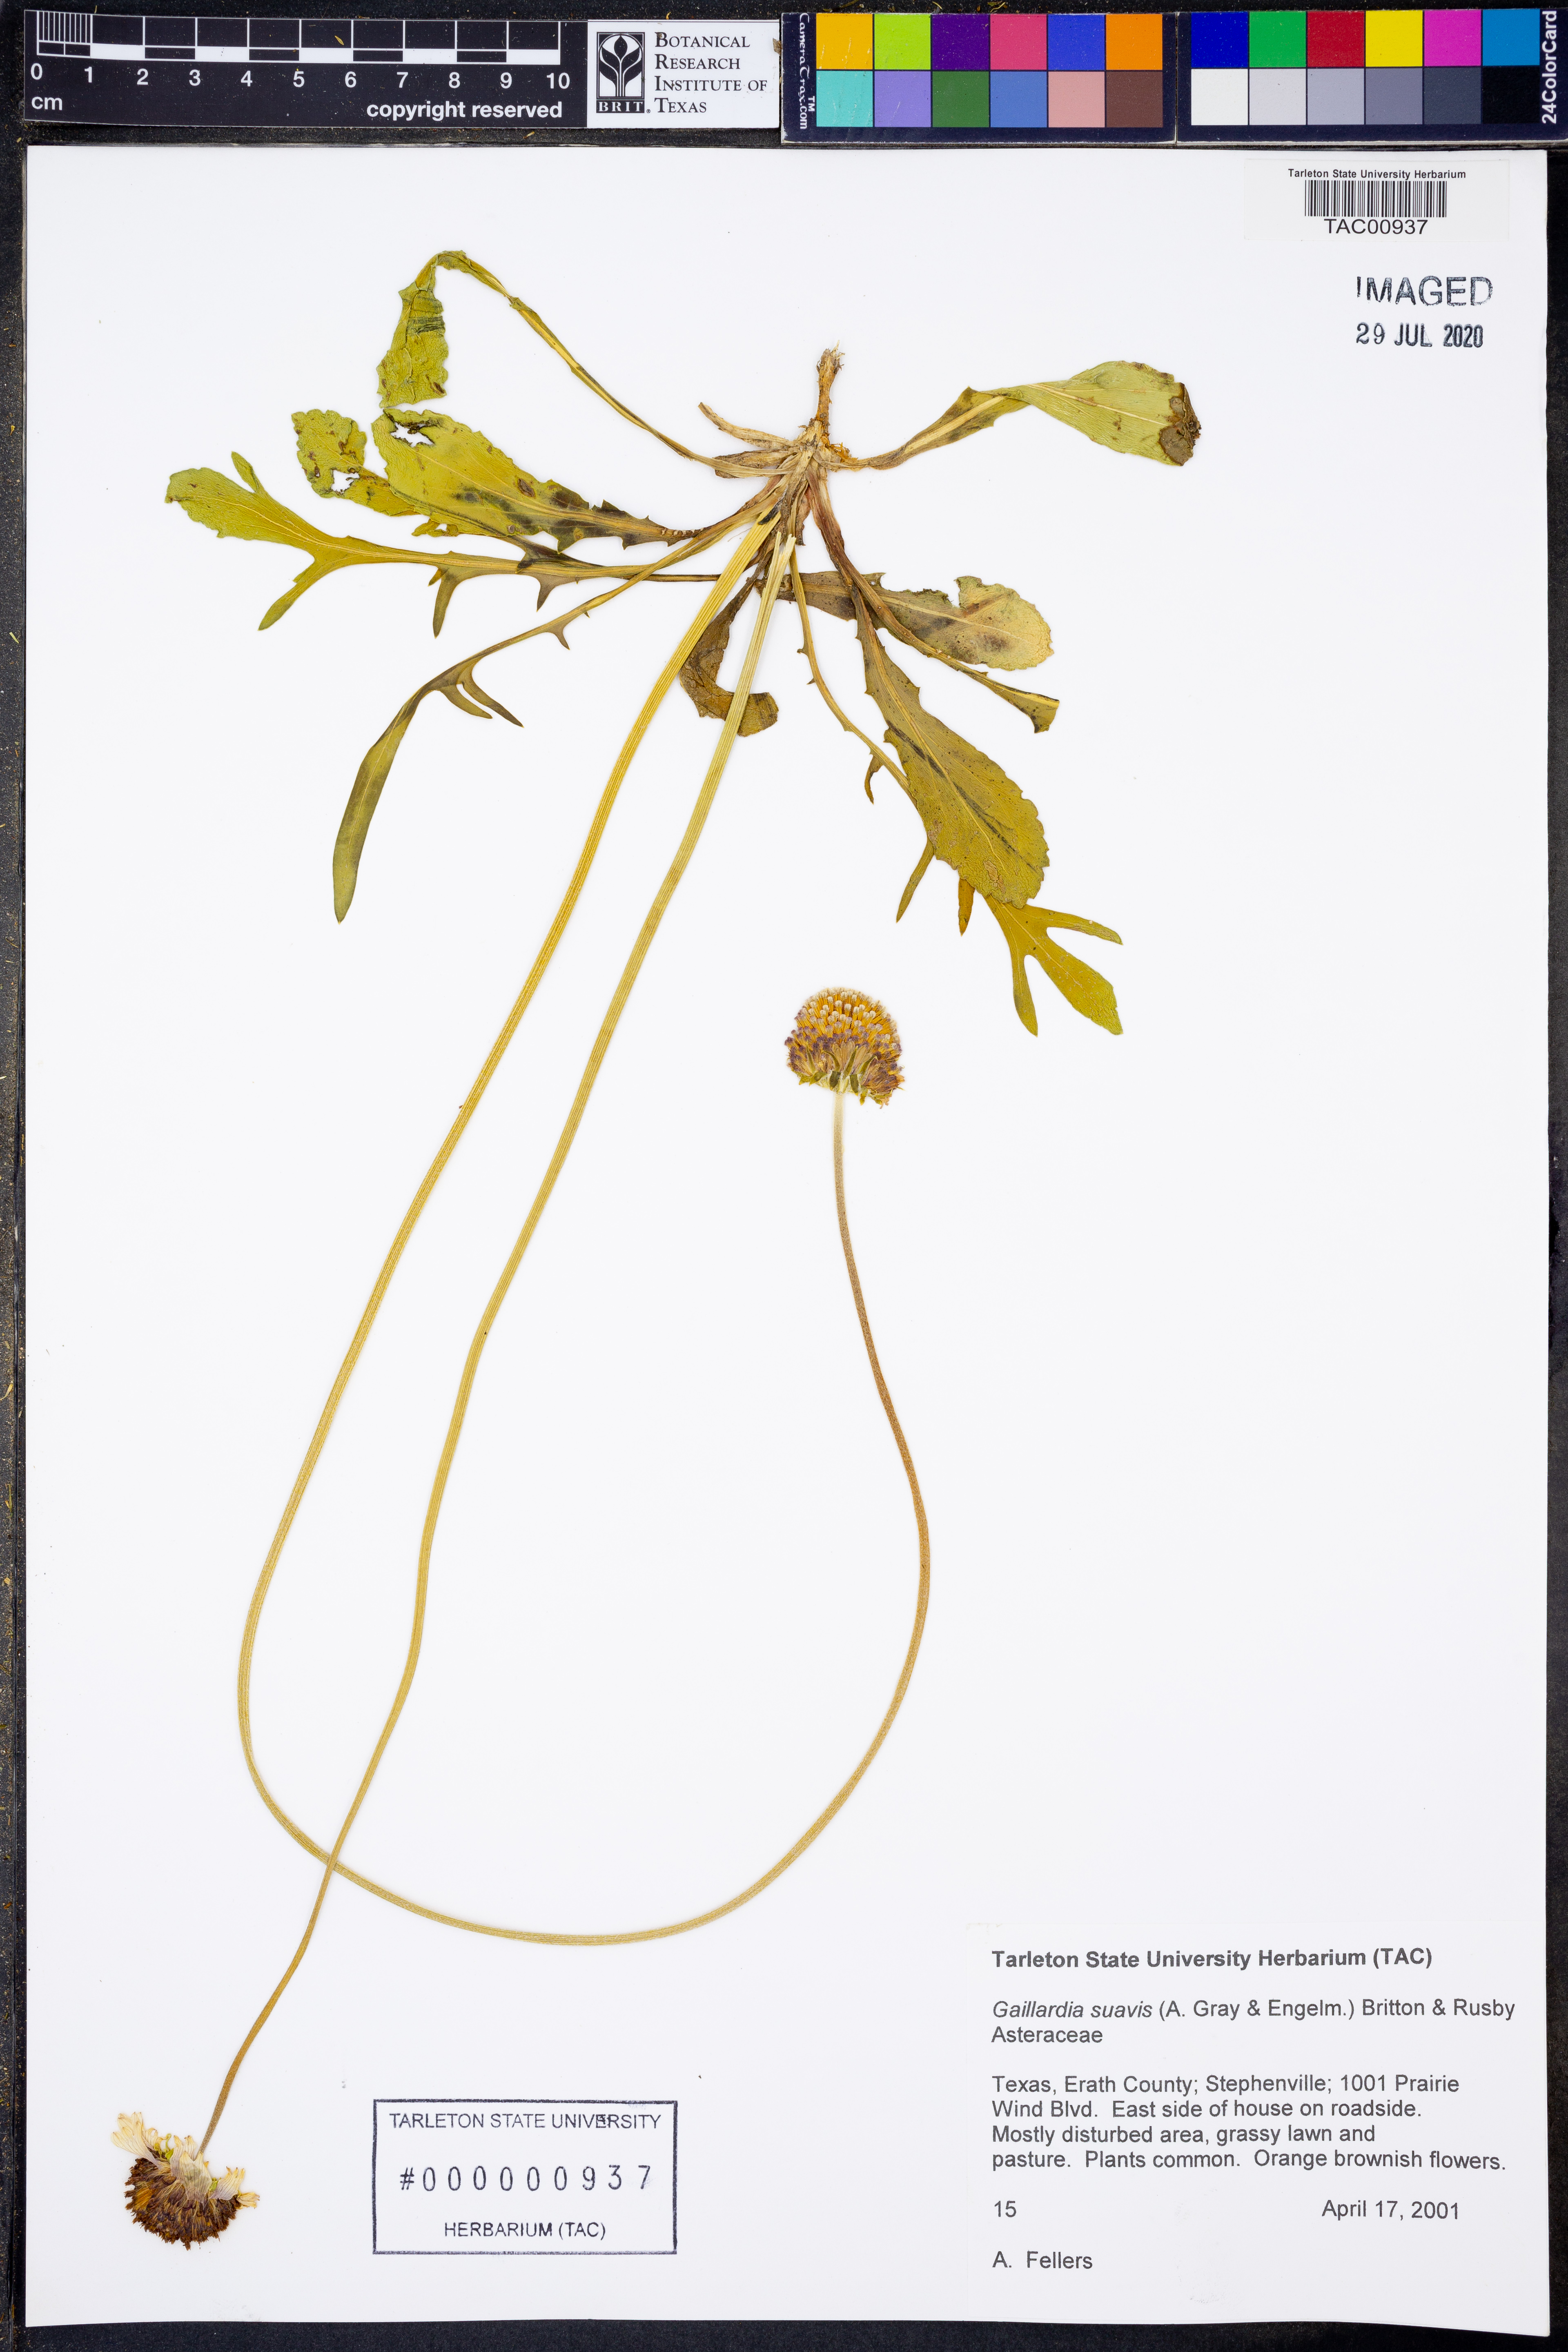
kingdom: Plantae
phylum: Tracheophyta
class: Magnoliopsida
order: Asterales
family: Asteraceae
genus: Gaillardia
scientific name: Gaillardia suavis
